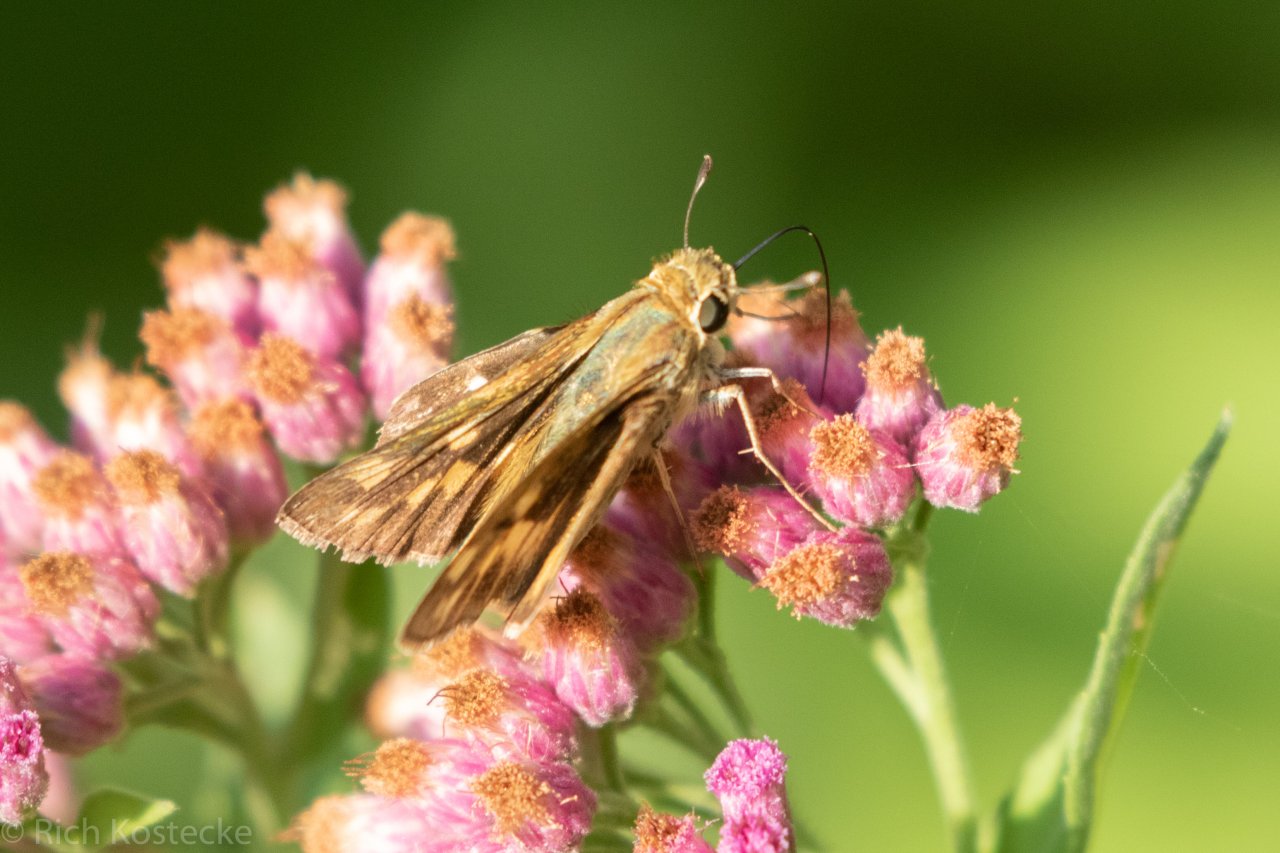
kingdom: Animalia
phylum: Arthropoda
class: Insecta
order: Lepidoptera
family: Hesperiidae
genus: Hylephila
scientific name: Hylephila phyleus
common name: Fiery Skipper
